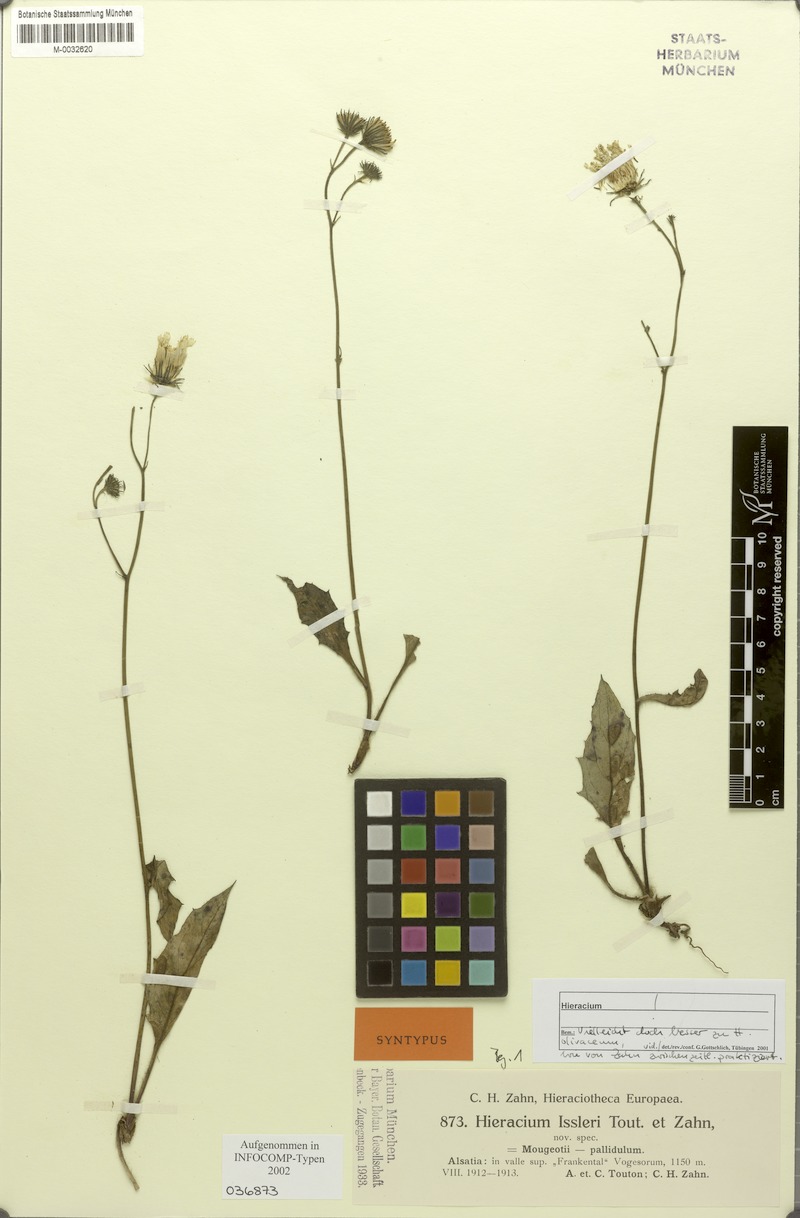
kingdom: Plantae
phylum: Tracheophyta
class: Magnoliopsida
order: Asterales
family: Asteraceae
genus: Hieracium
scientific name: Hieracium juranum
